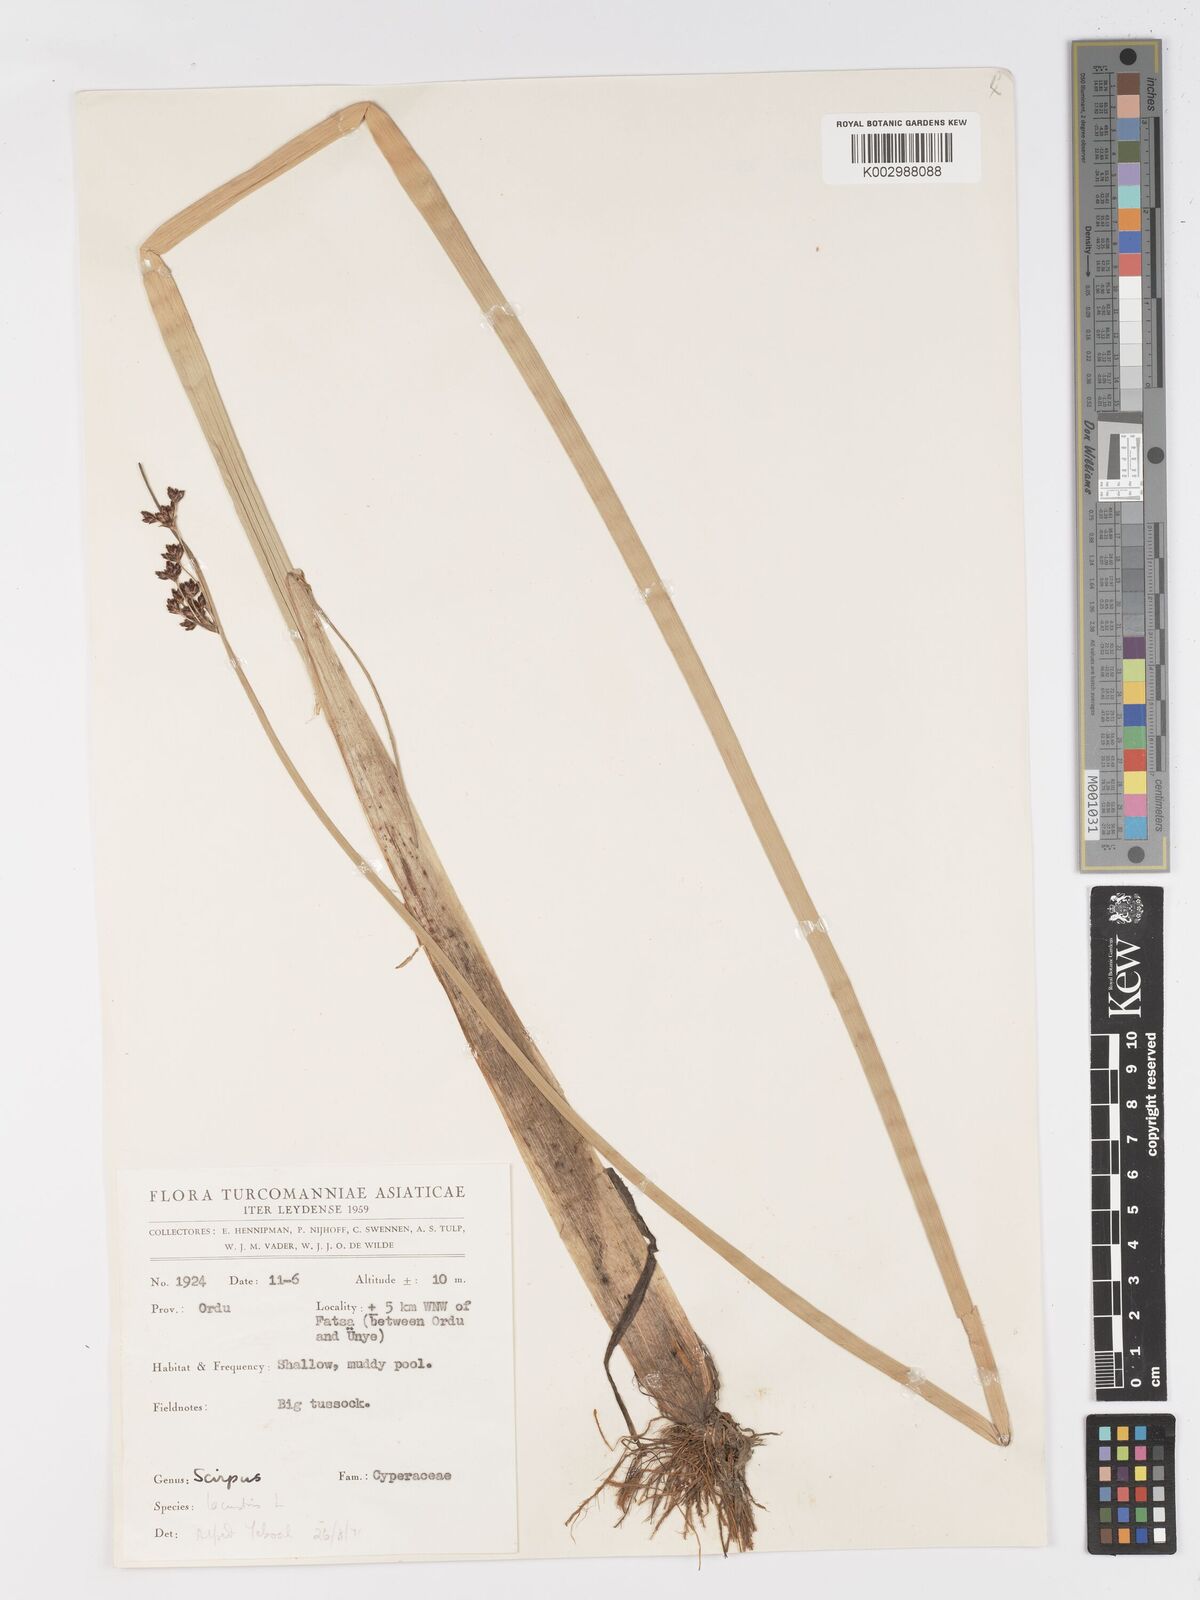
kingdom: Plantae
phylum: Tracheophyta
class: Liliopsida
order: Poales
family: Cyperaceae
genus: Schoenoplectus
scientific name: Schoenoplectus lacustris
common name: Common club-rush
